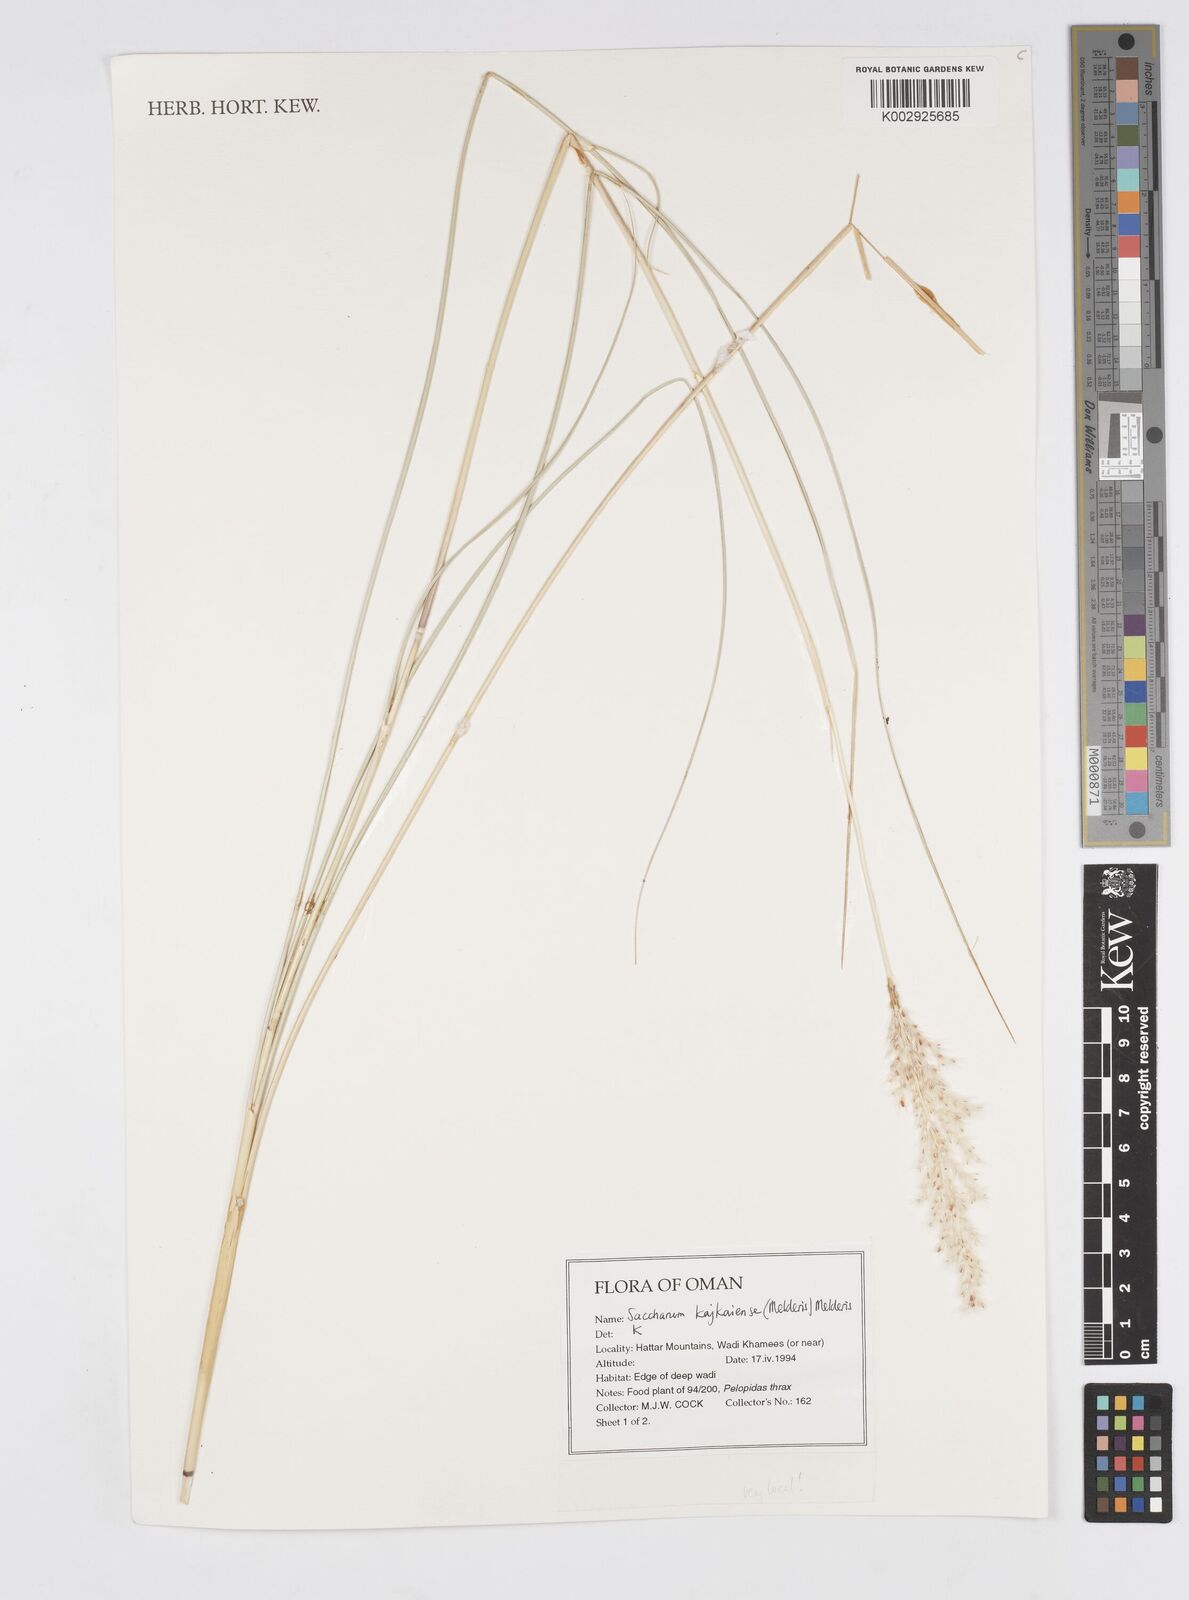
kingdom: Plantae
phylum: Tracheophyta
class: Liliopsida
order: Poales
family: Poaceae
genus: Saccharum
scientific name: Saccharum kajkaiense
